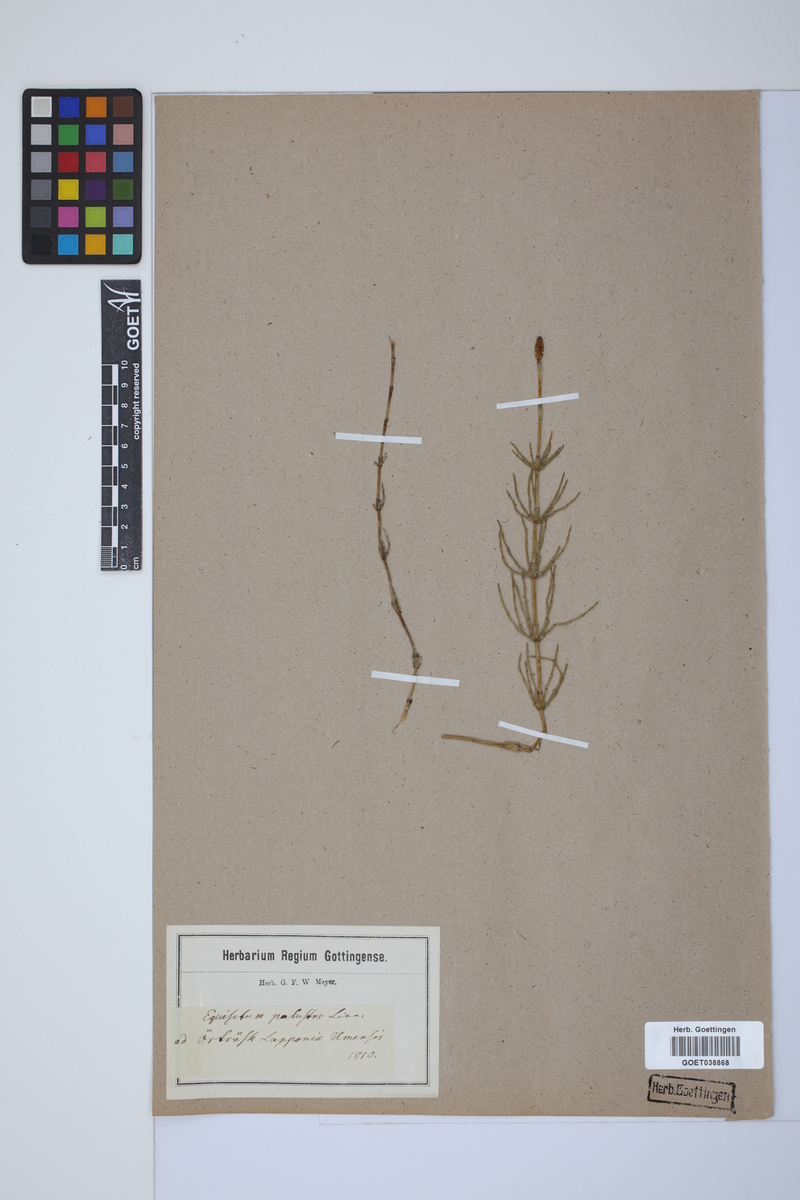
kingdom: Plantae
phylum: Tracheophyta
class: Polypodiopsida
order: Equisetales
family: Equisetaceae
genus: Equisetum
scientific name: Equisetum palustre
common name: Marsh horsetail
